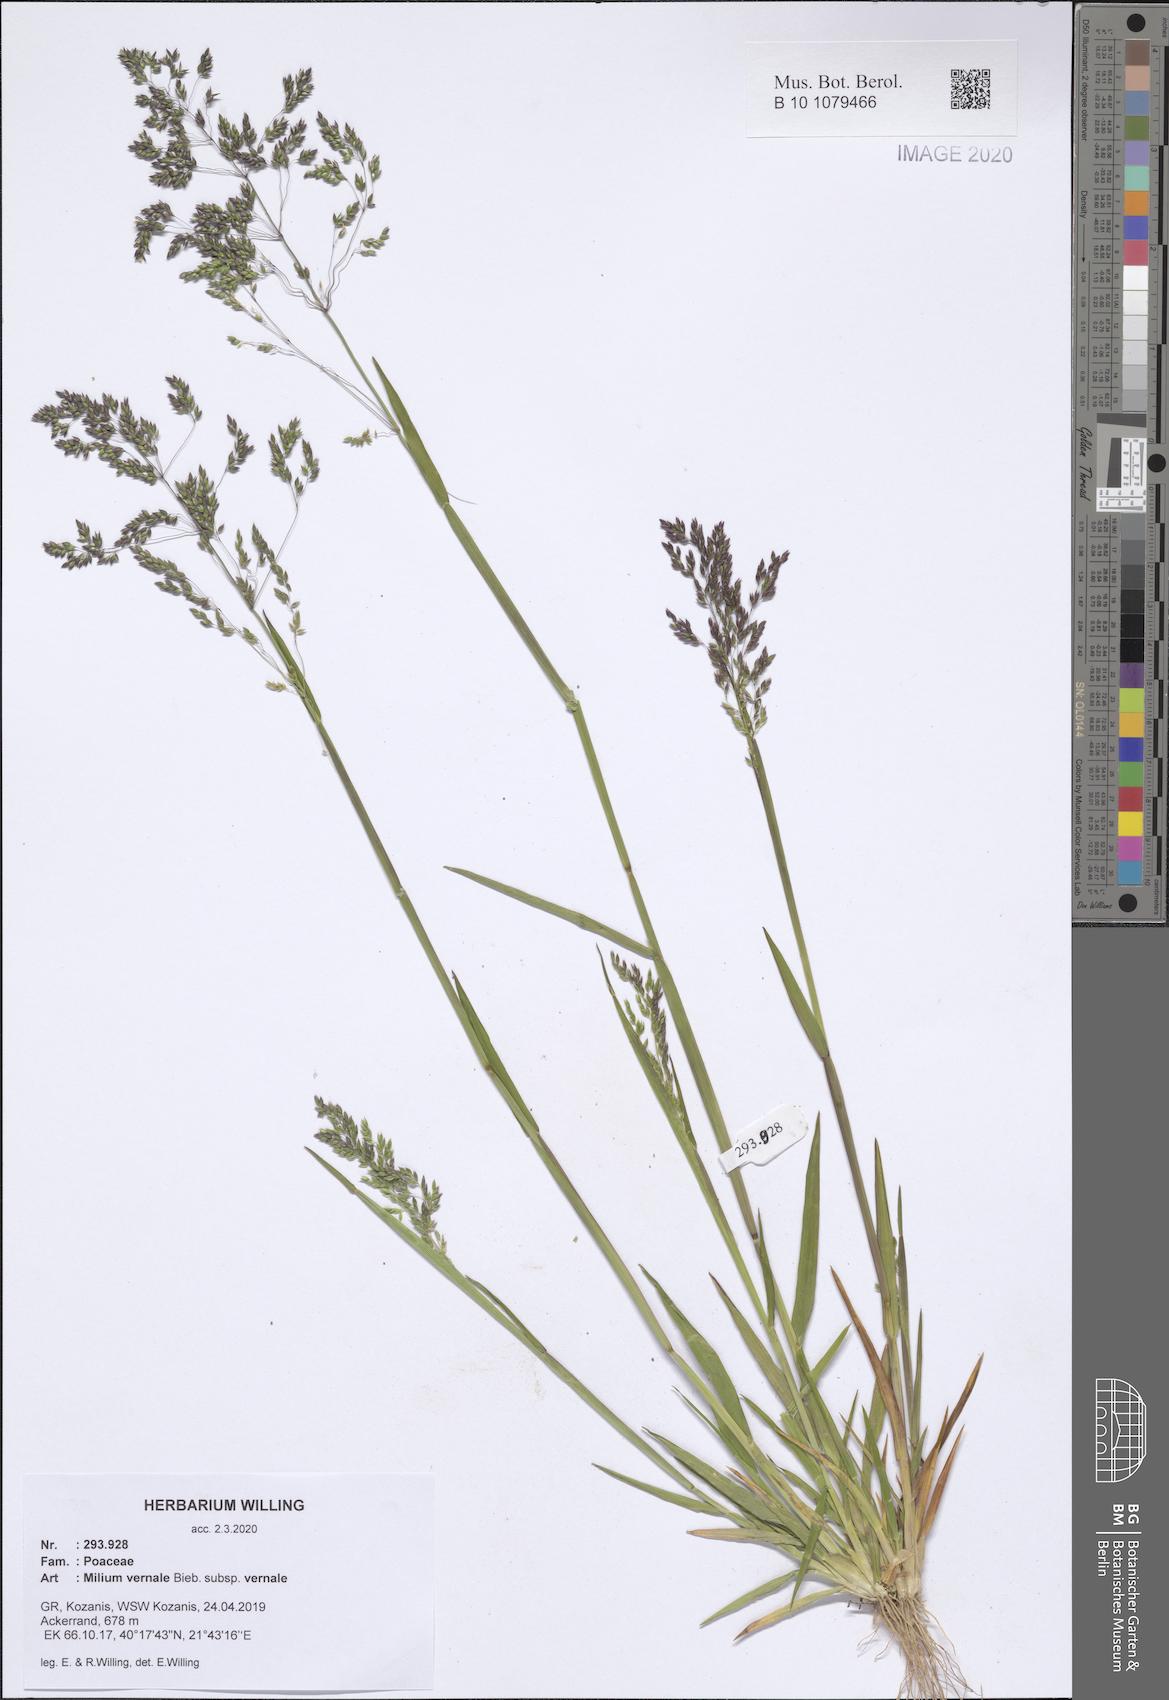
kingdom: Plantae
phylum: Tracheophyta
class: Liliopsida
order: Poales
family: Poaceae
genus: Milium
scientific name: Milium vernale
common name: Early millet
